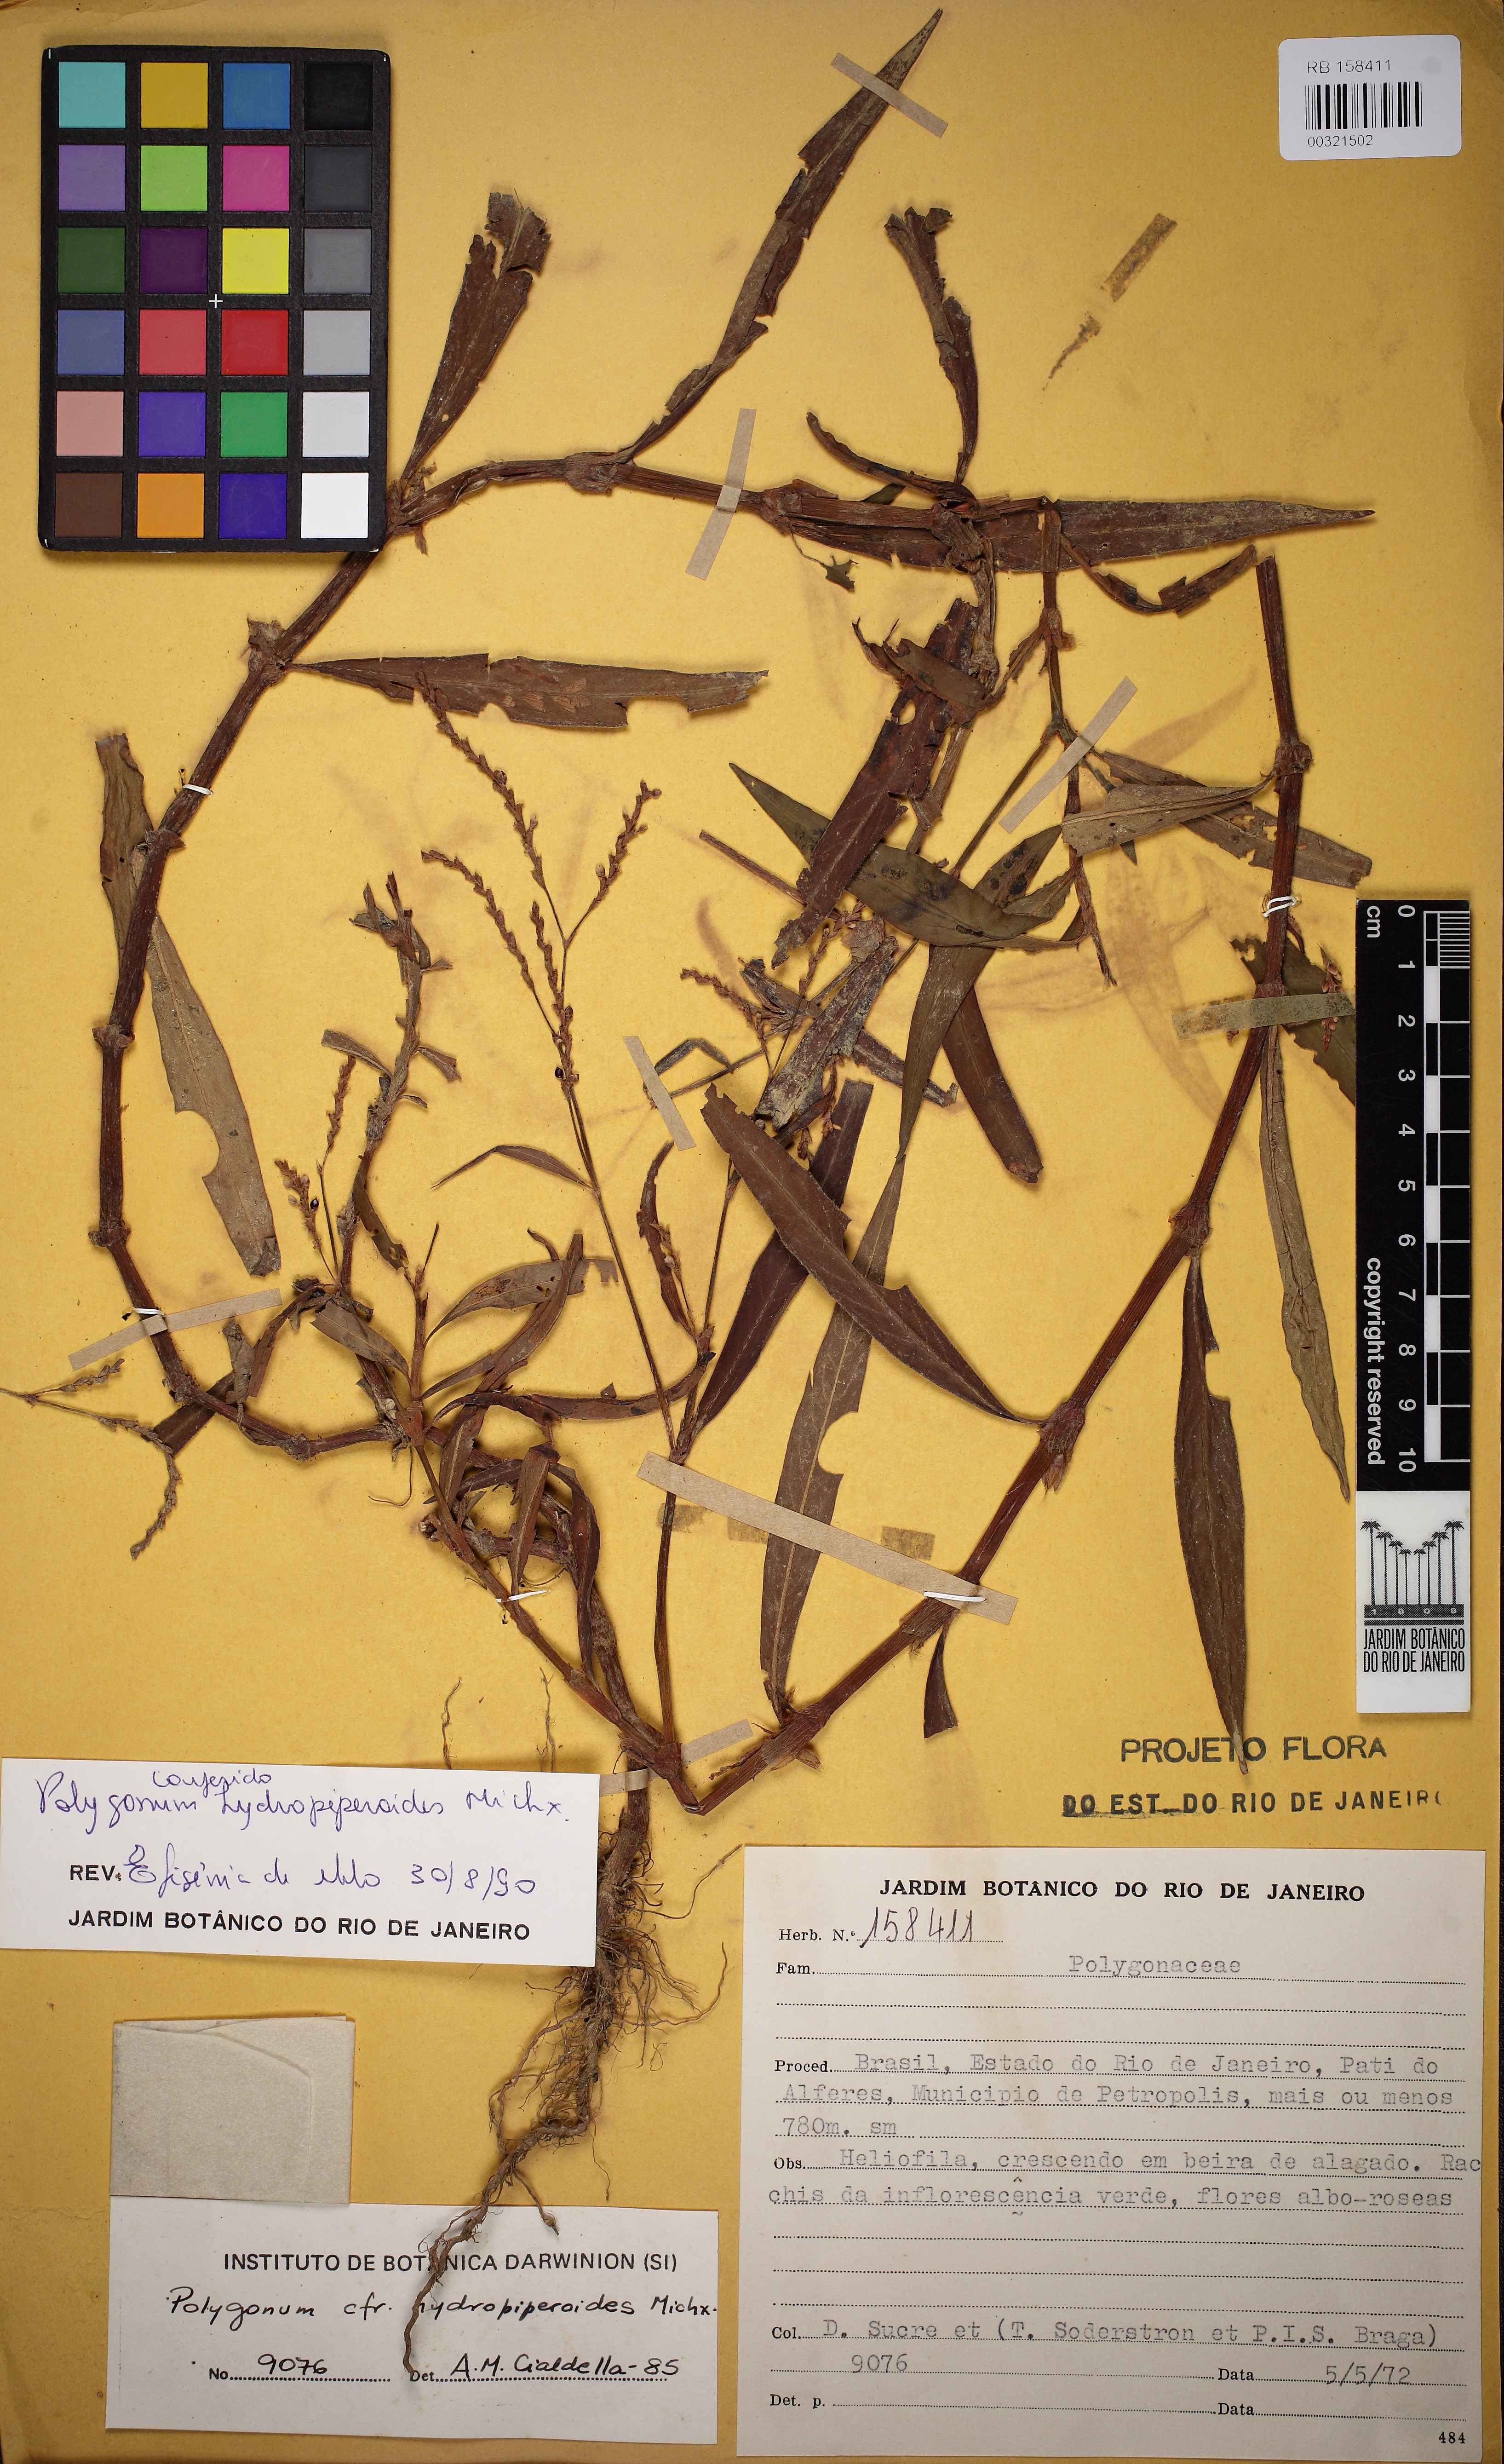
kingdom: Plantae
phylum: Tracheophyta
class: Magnoliopsida
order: Caryophyllales
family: Polygonaceae
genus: Persicaria
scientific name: Persicaria hydropiperoides
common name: Swamp smartweed
